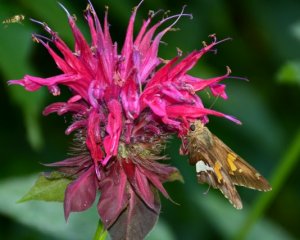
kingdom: Animalia
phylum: Arthropoda
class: Insecta
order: Lepidoptera
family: Hesperiidae
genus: Epargyreus
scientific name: Epargyreus clarus
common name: Silver-spotted Skipper
